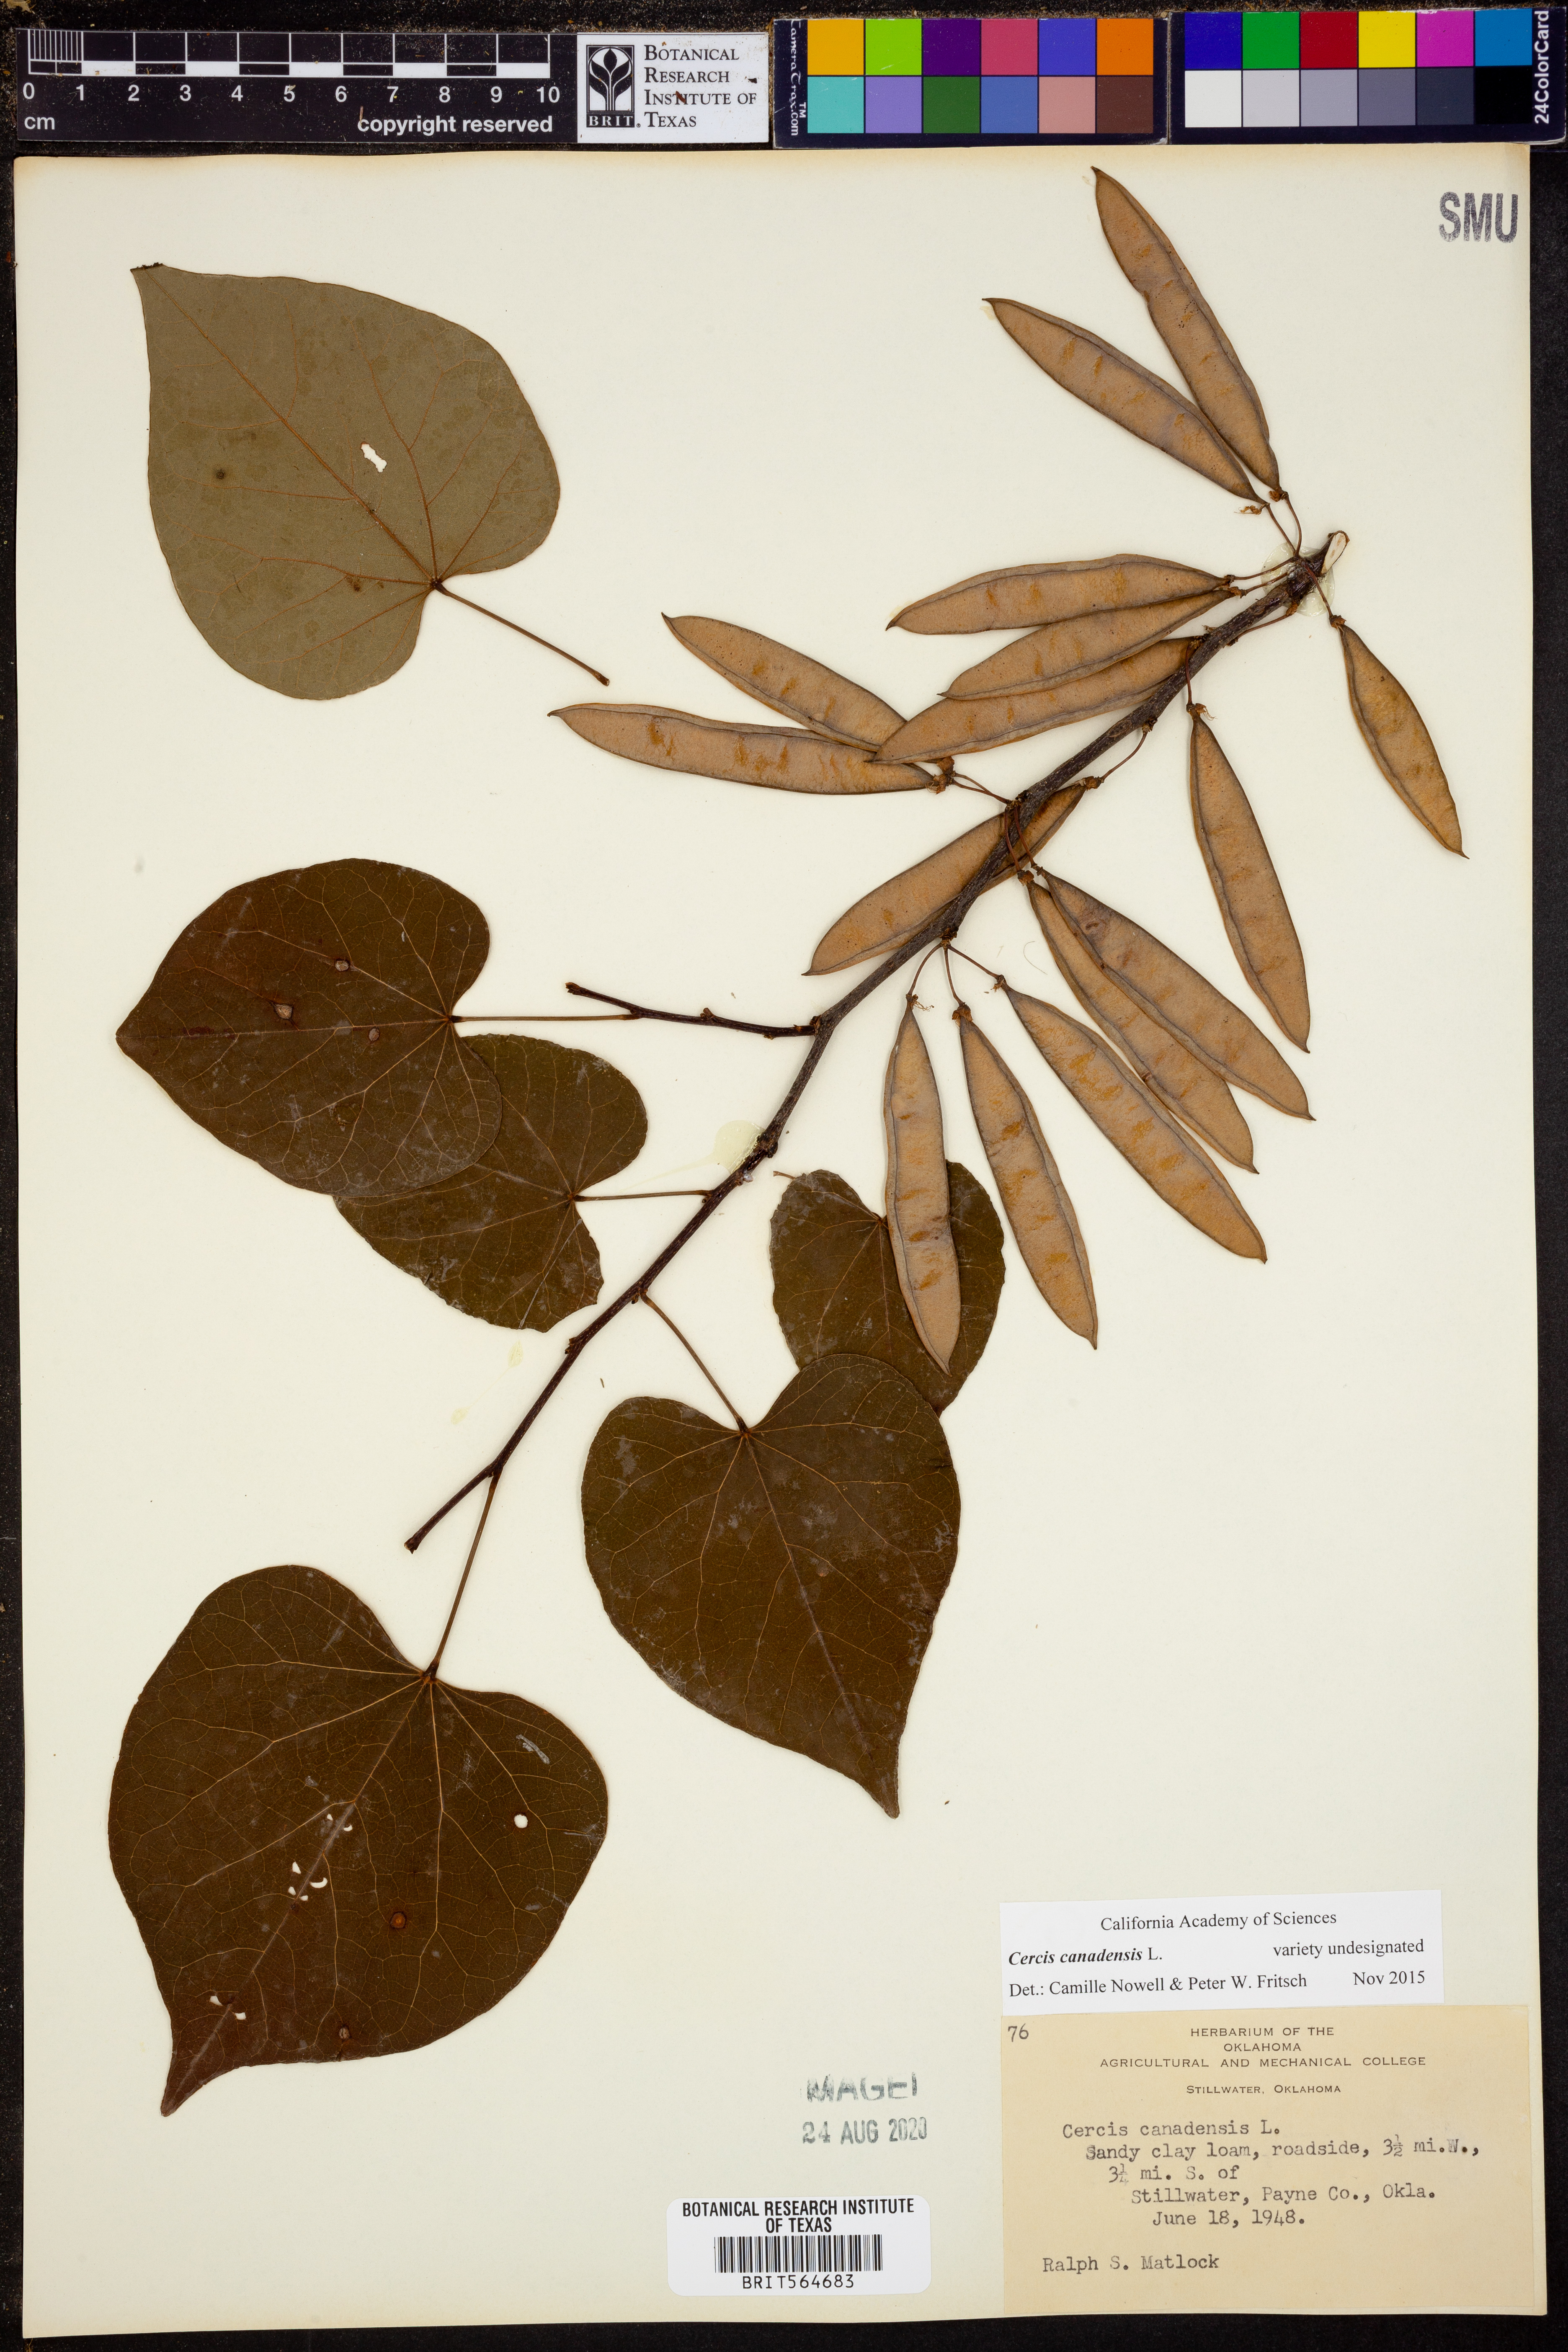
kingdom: Plantae
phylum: Tracheophyta
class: Magnoliopsida
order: Fabales
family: Fabaceae
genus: Cercis
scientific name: Cercis canadensis
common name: Eastern redbud
